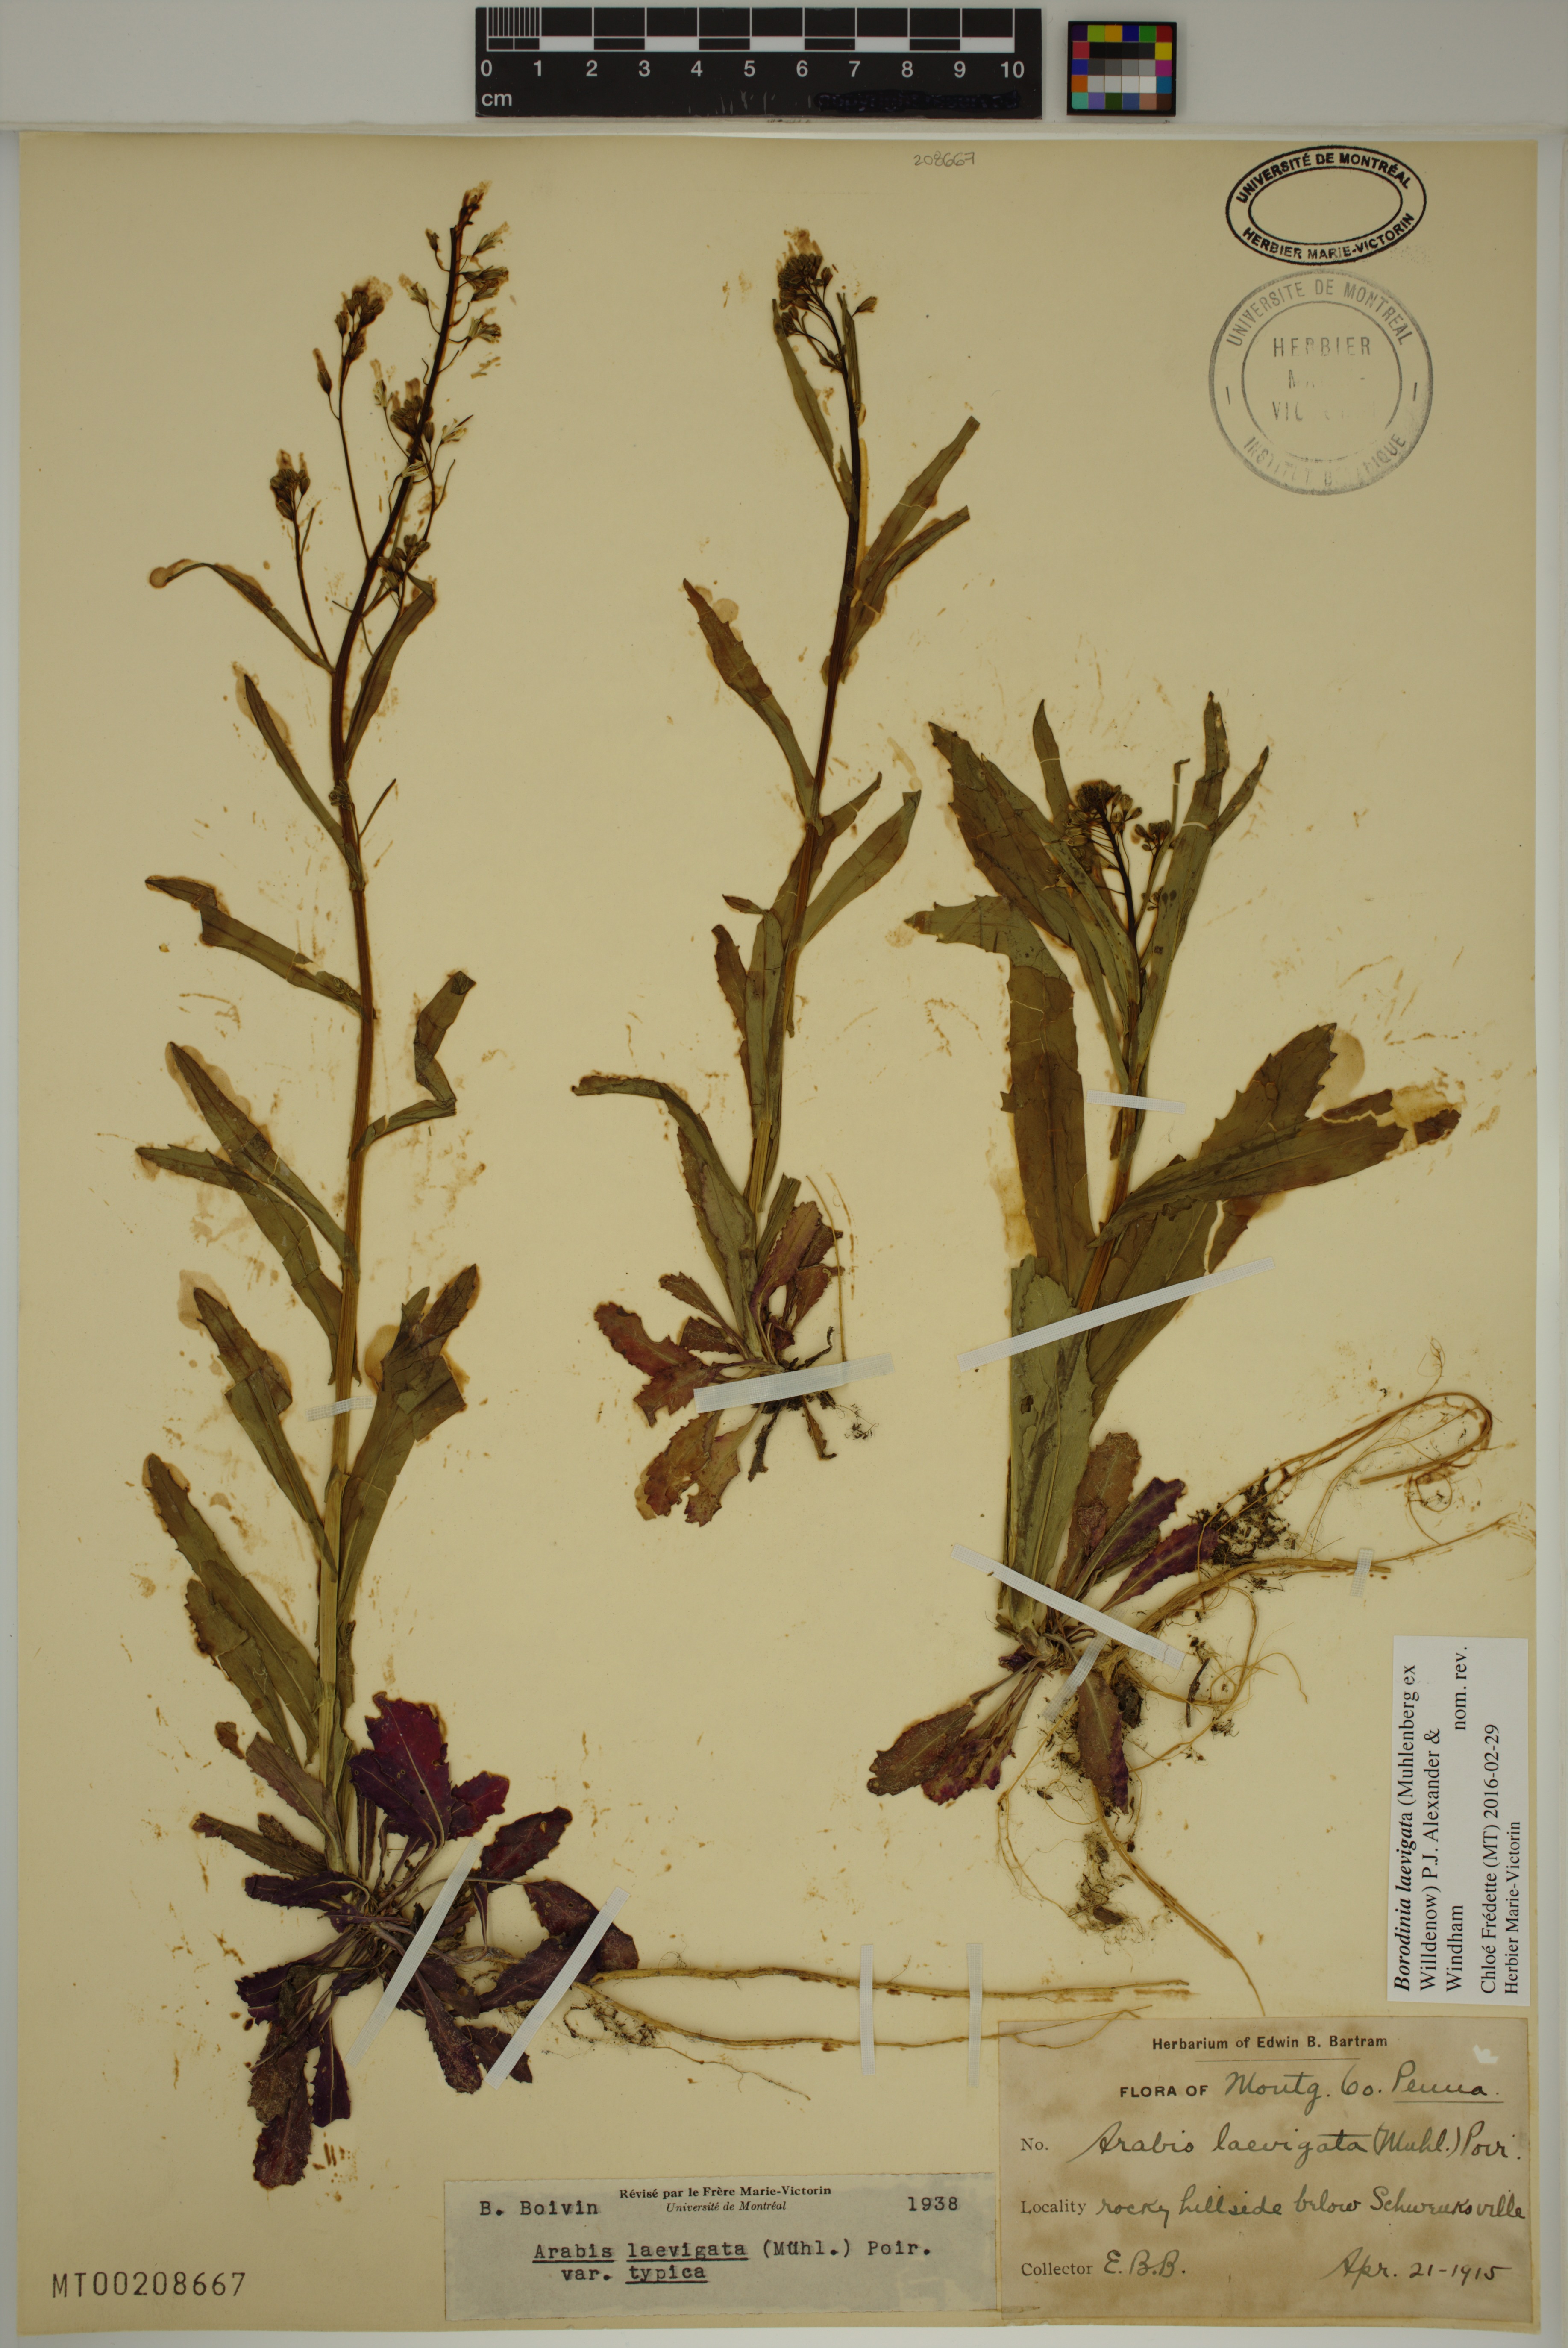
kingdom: Plantae
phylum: Tracheophyta
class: Magnoliopsida
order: Brassicales
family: Brassicaceae
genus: Borodinia
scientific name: Borodinia laevigata
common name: Smooth rockcress
